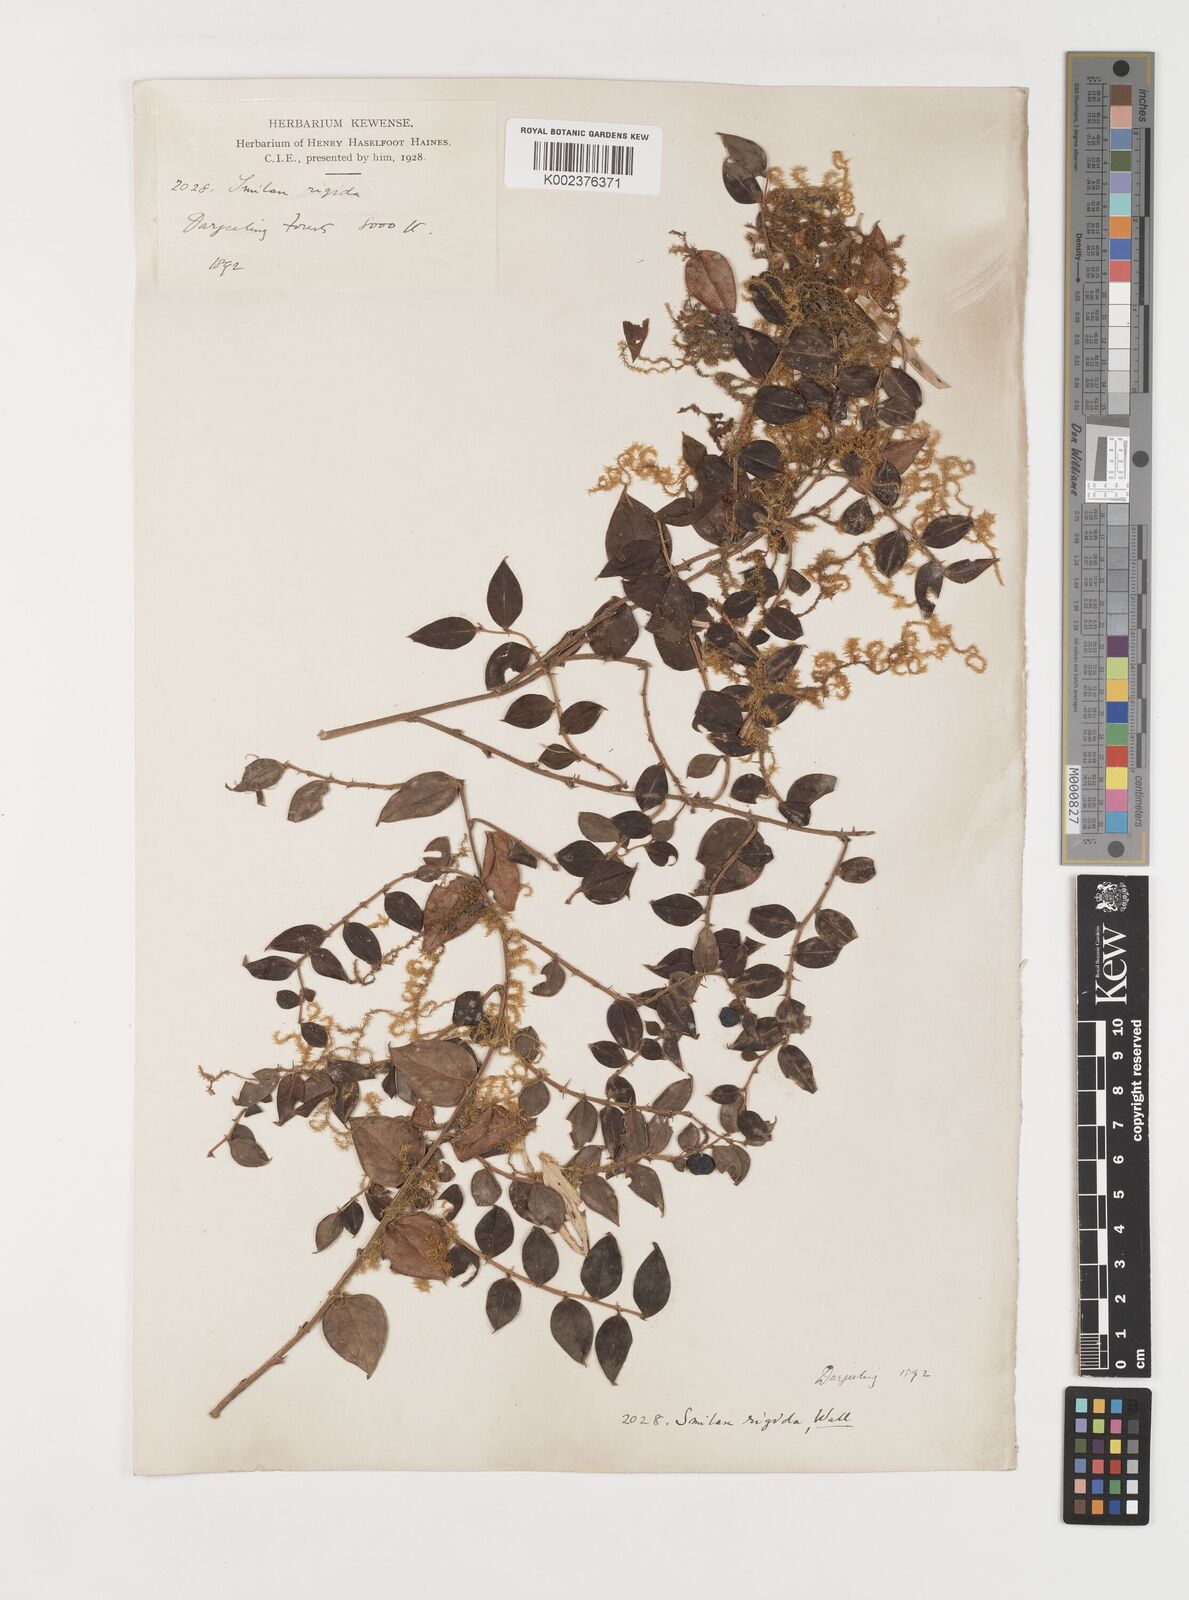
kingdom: Plantae
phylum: Tracheophyta
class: Liliopsida
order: Liliales
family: Smilacaceae
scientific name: Smilacaceae
